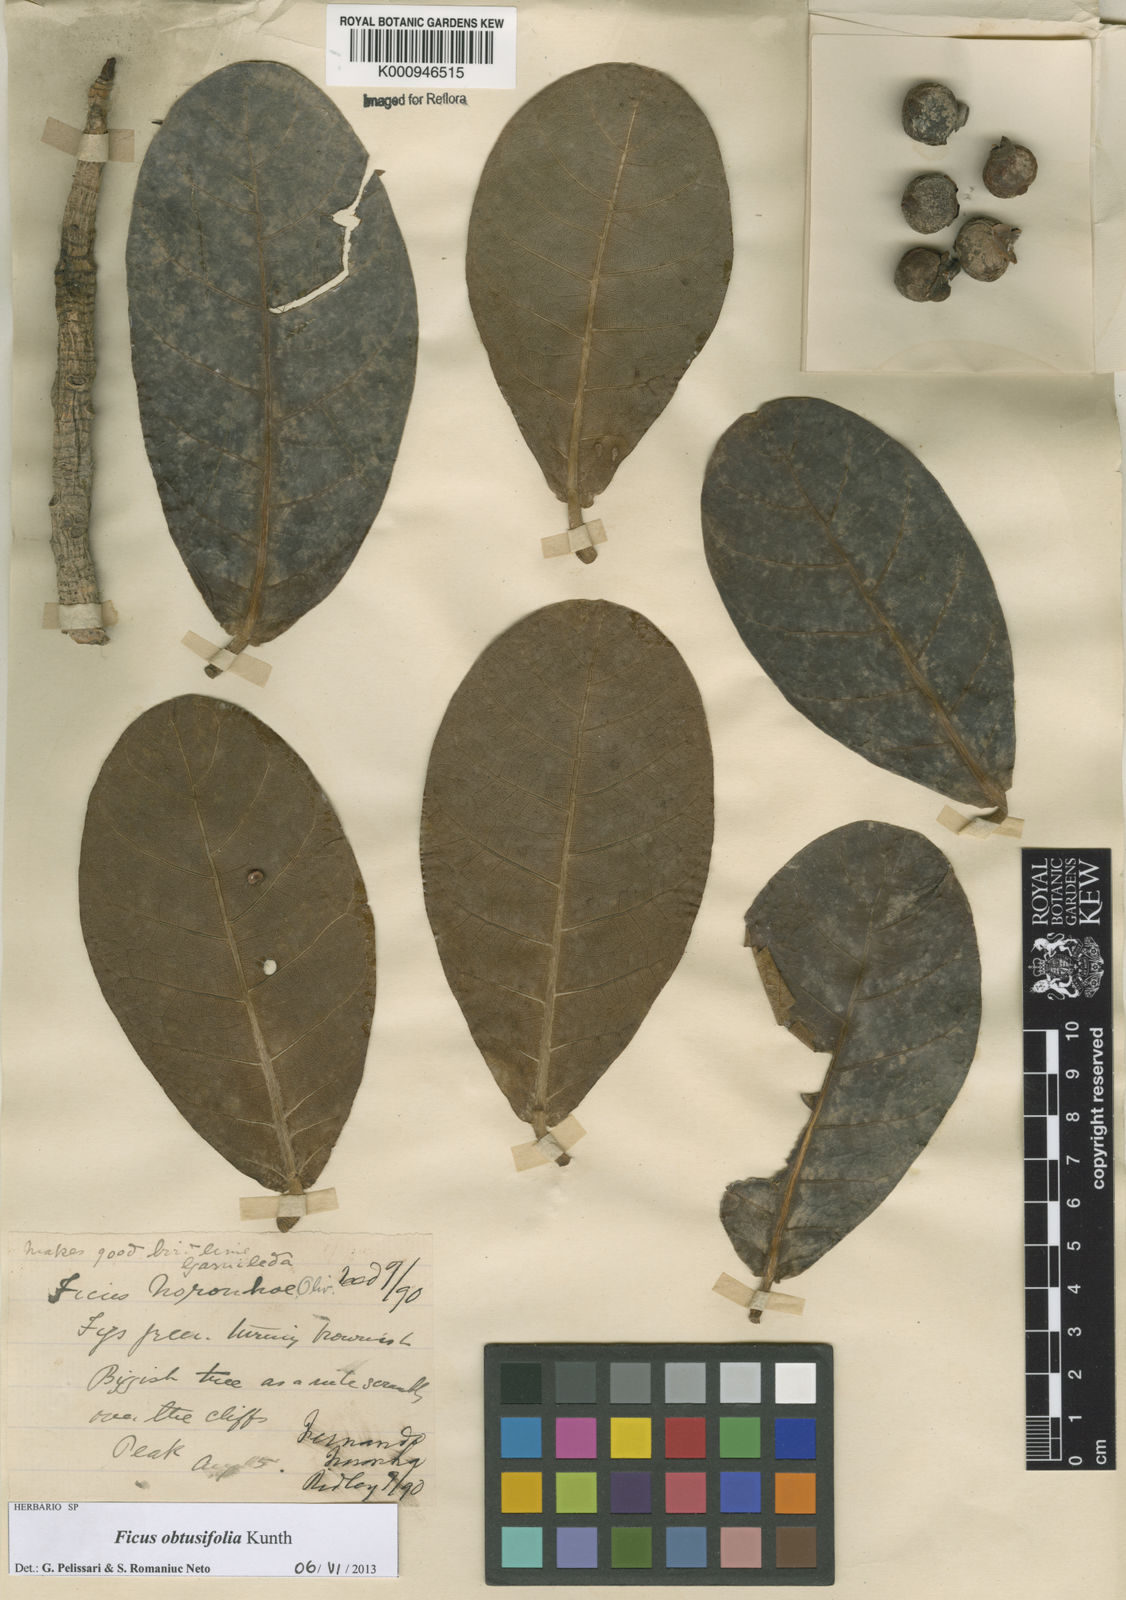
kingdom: Plantae
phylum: Tracheophyta
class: Magnoliopsida
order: Rosales
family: Moraceae
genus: Ficus
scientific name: Ficus obtusifolia
